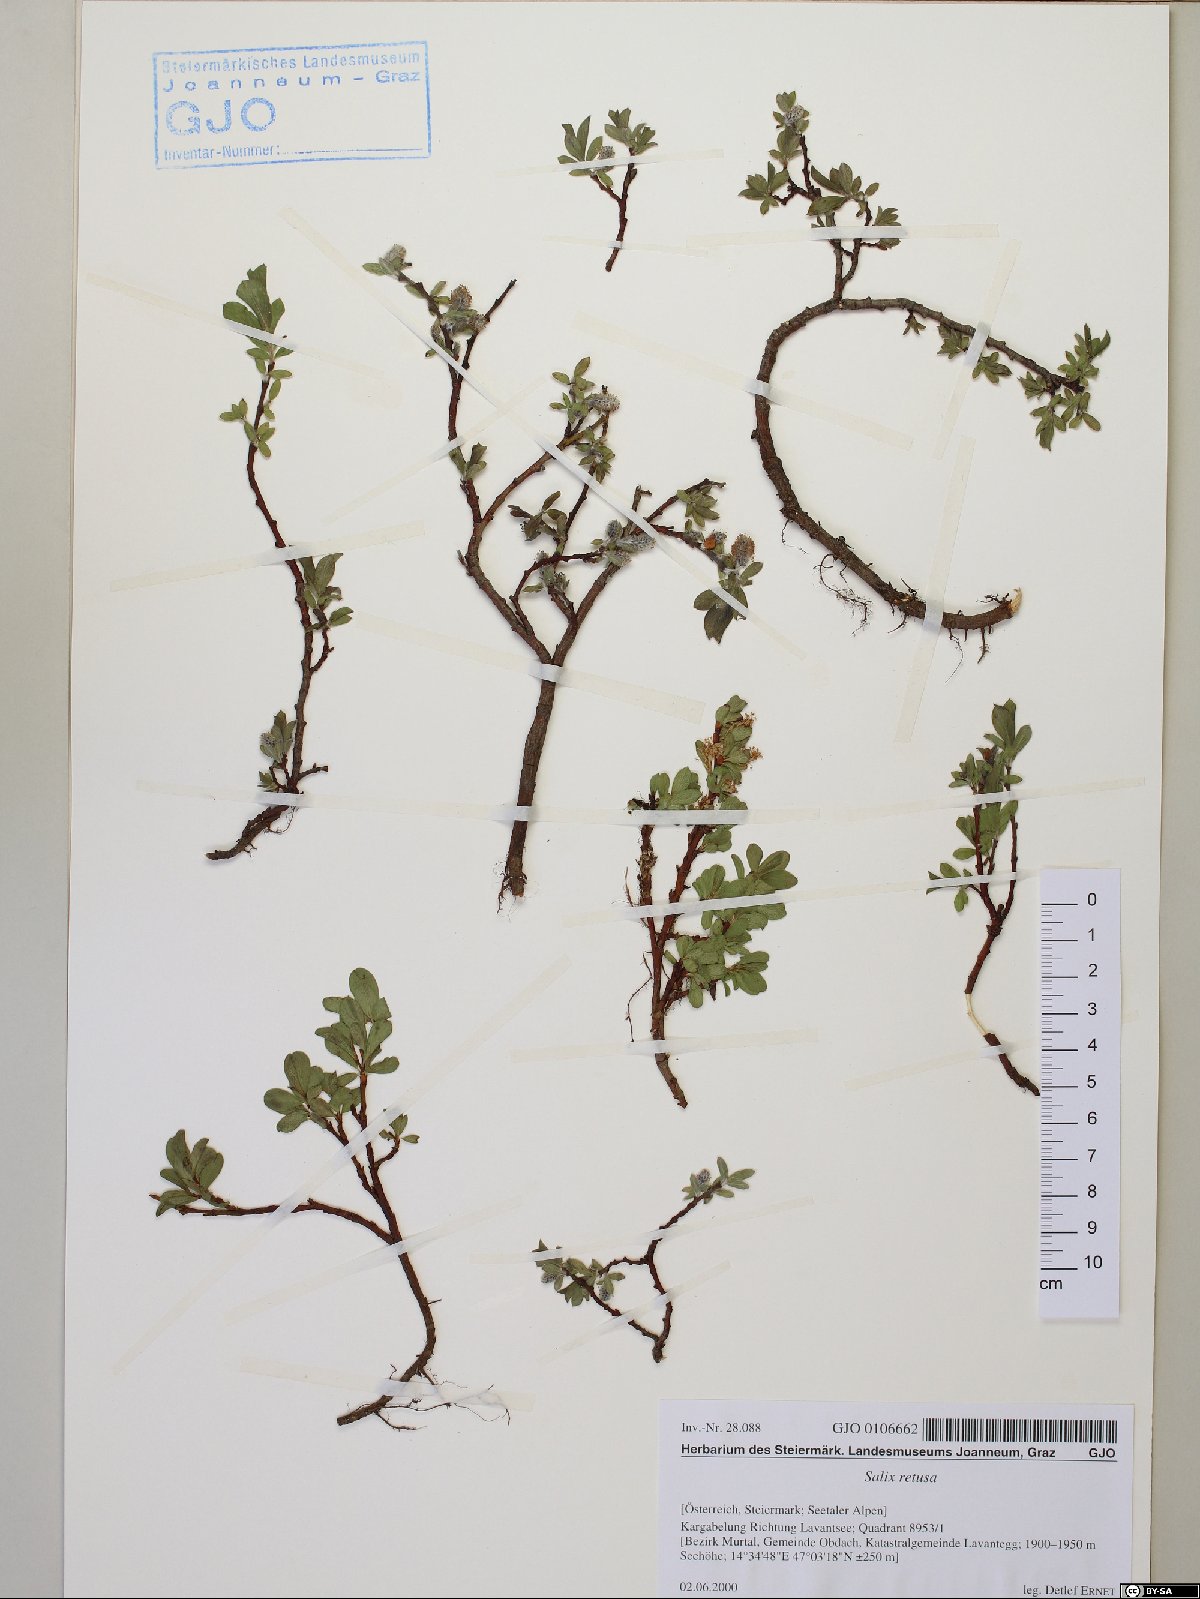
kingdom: Plantae
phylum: Tracheophyta
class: Magnoliopsida
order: Malpighiales
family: Salicaceae
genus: Salix
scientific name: Salix retusa
